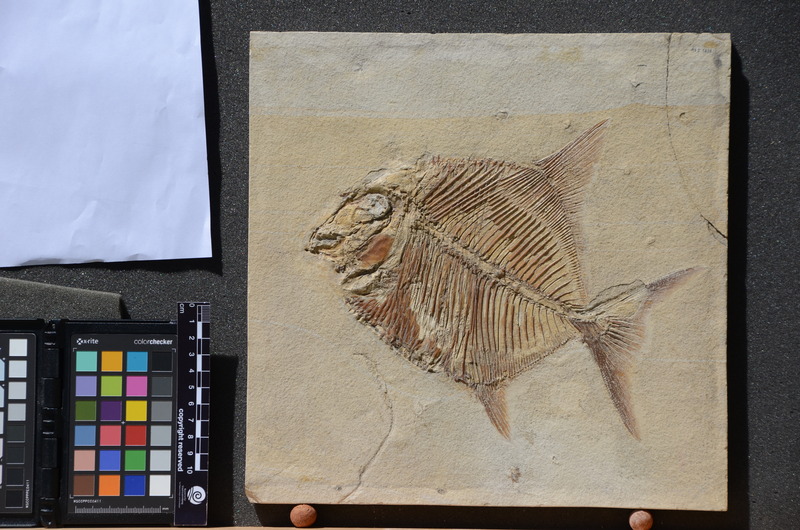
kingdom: Animalia
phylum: Chordata
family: Pycnodontidae
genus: Proscinetes
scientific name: Proscinetes elegans
